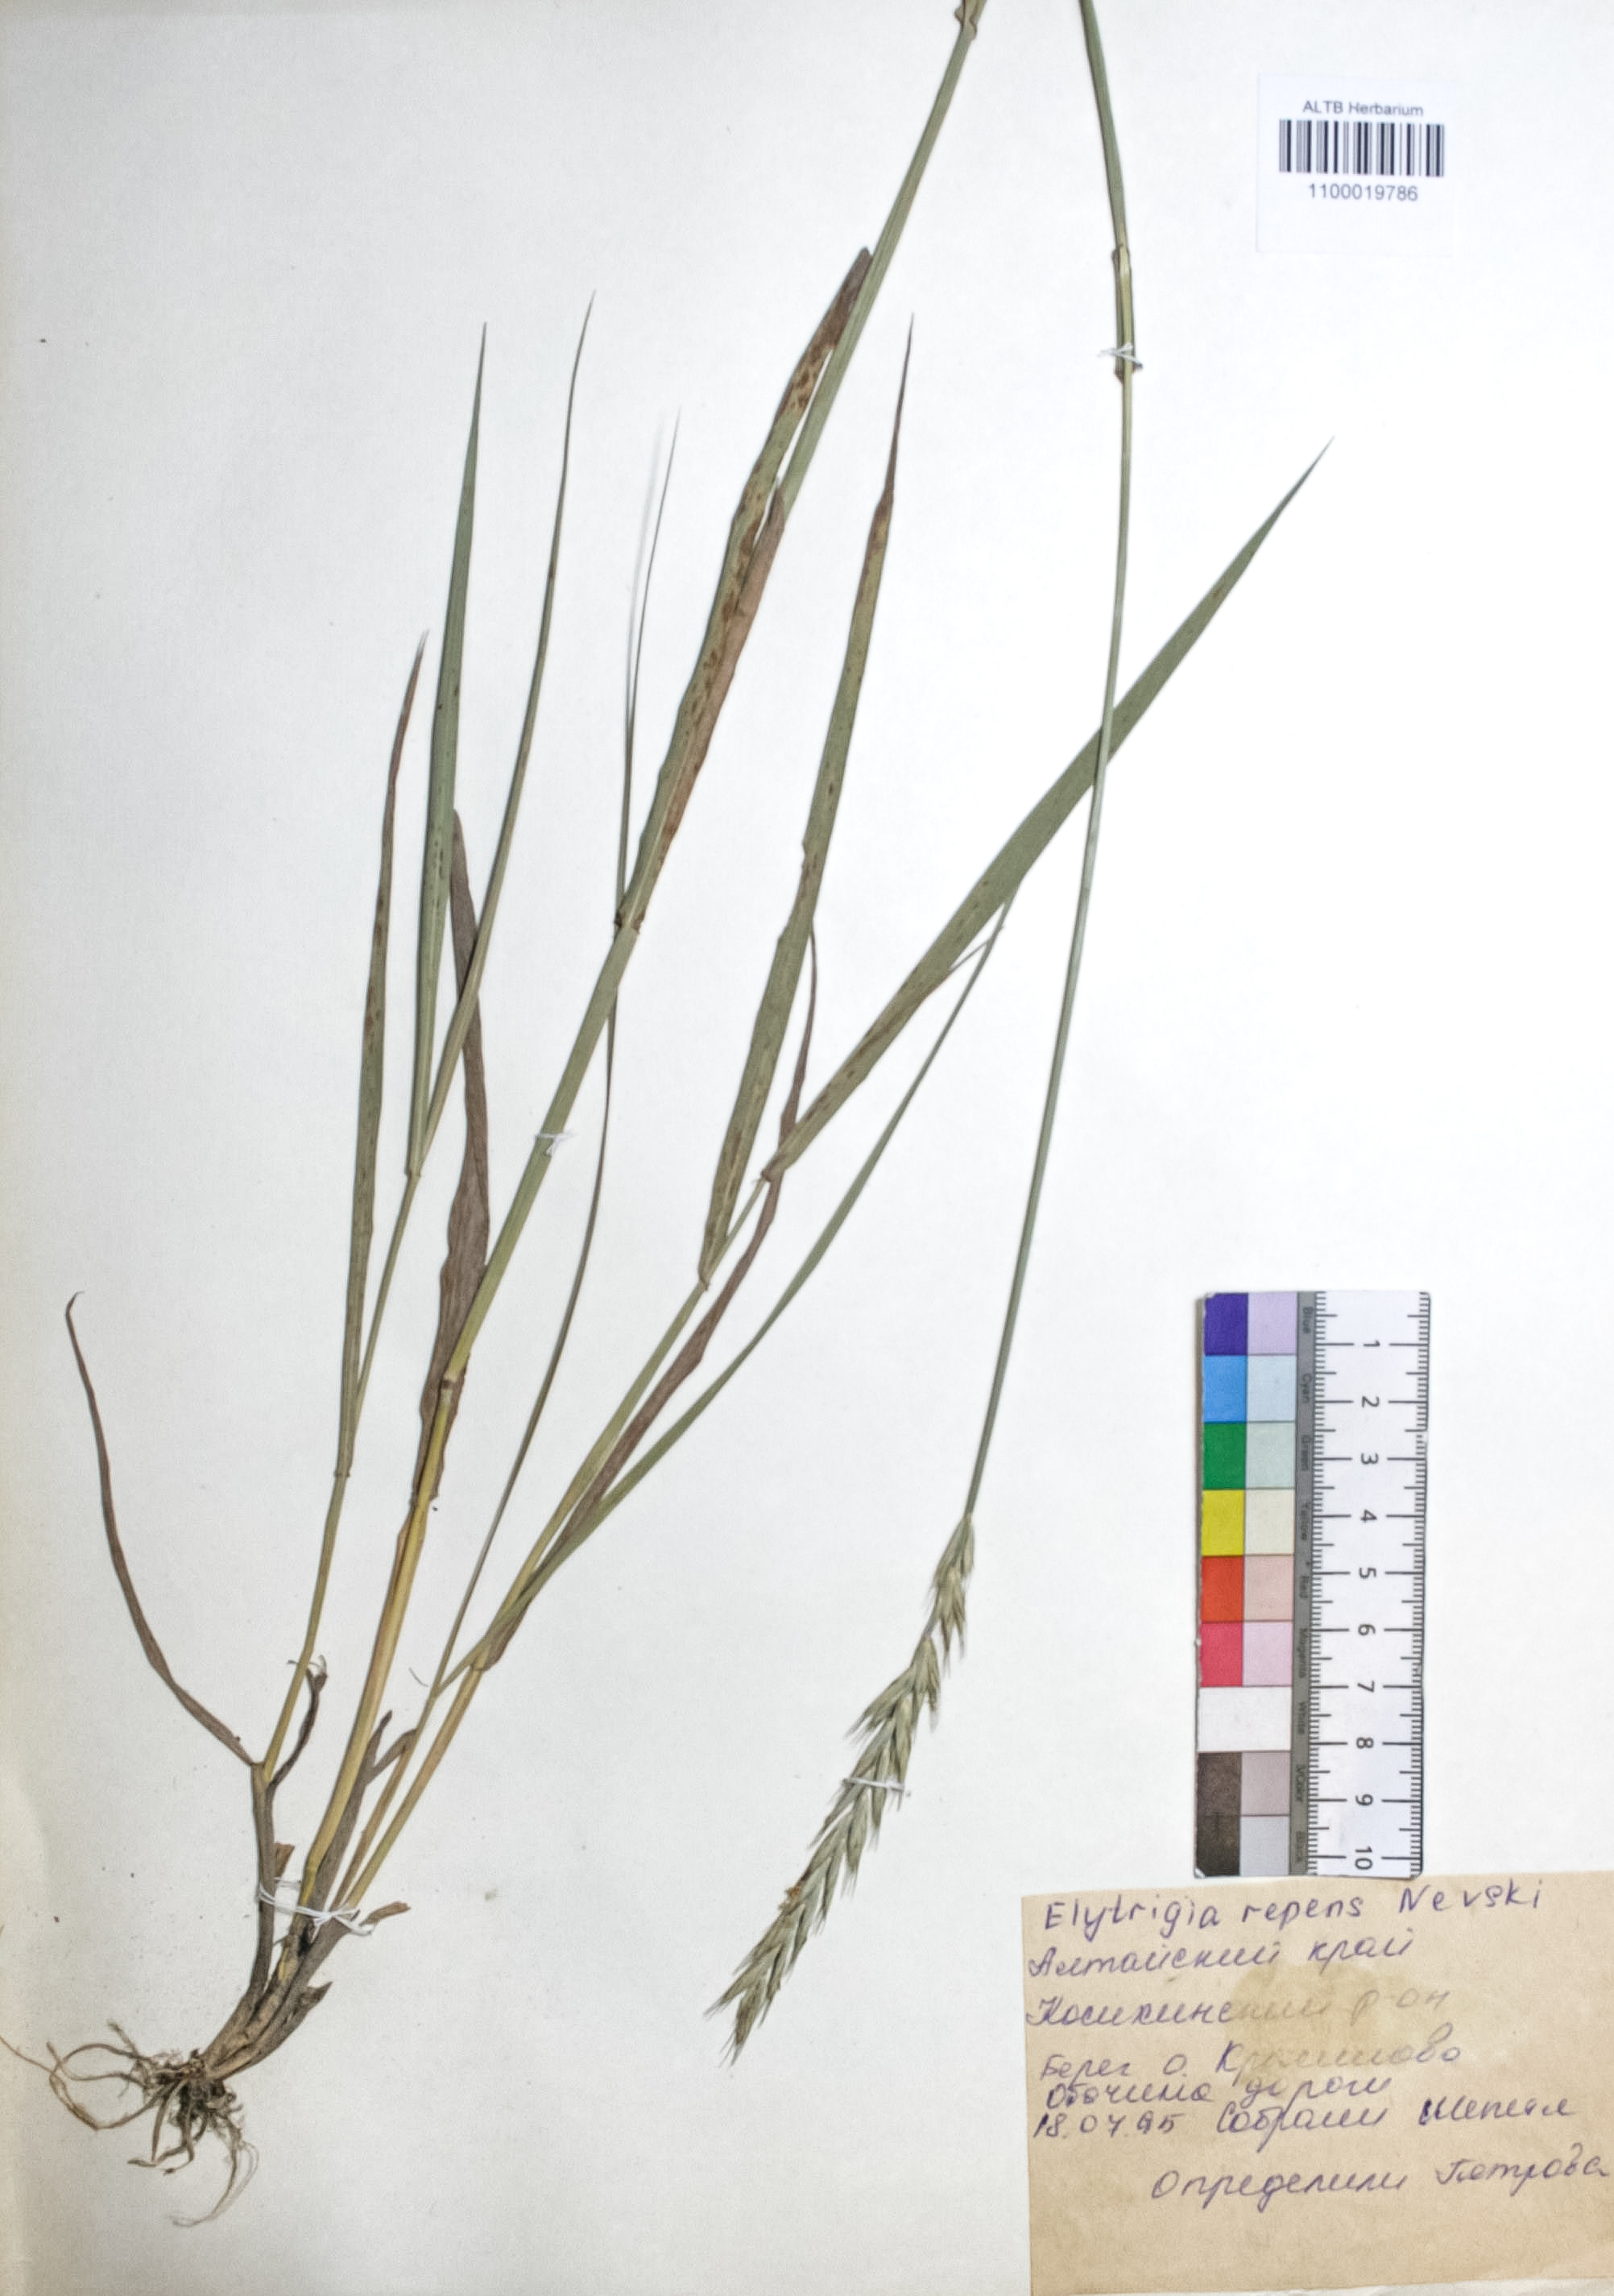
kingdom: Plantae
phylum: Tracheophyta
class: Liliopsida
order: Poales
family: Poaceae
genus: Elymus
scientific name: Elymus repens
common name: Quackgrass
